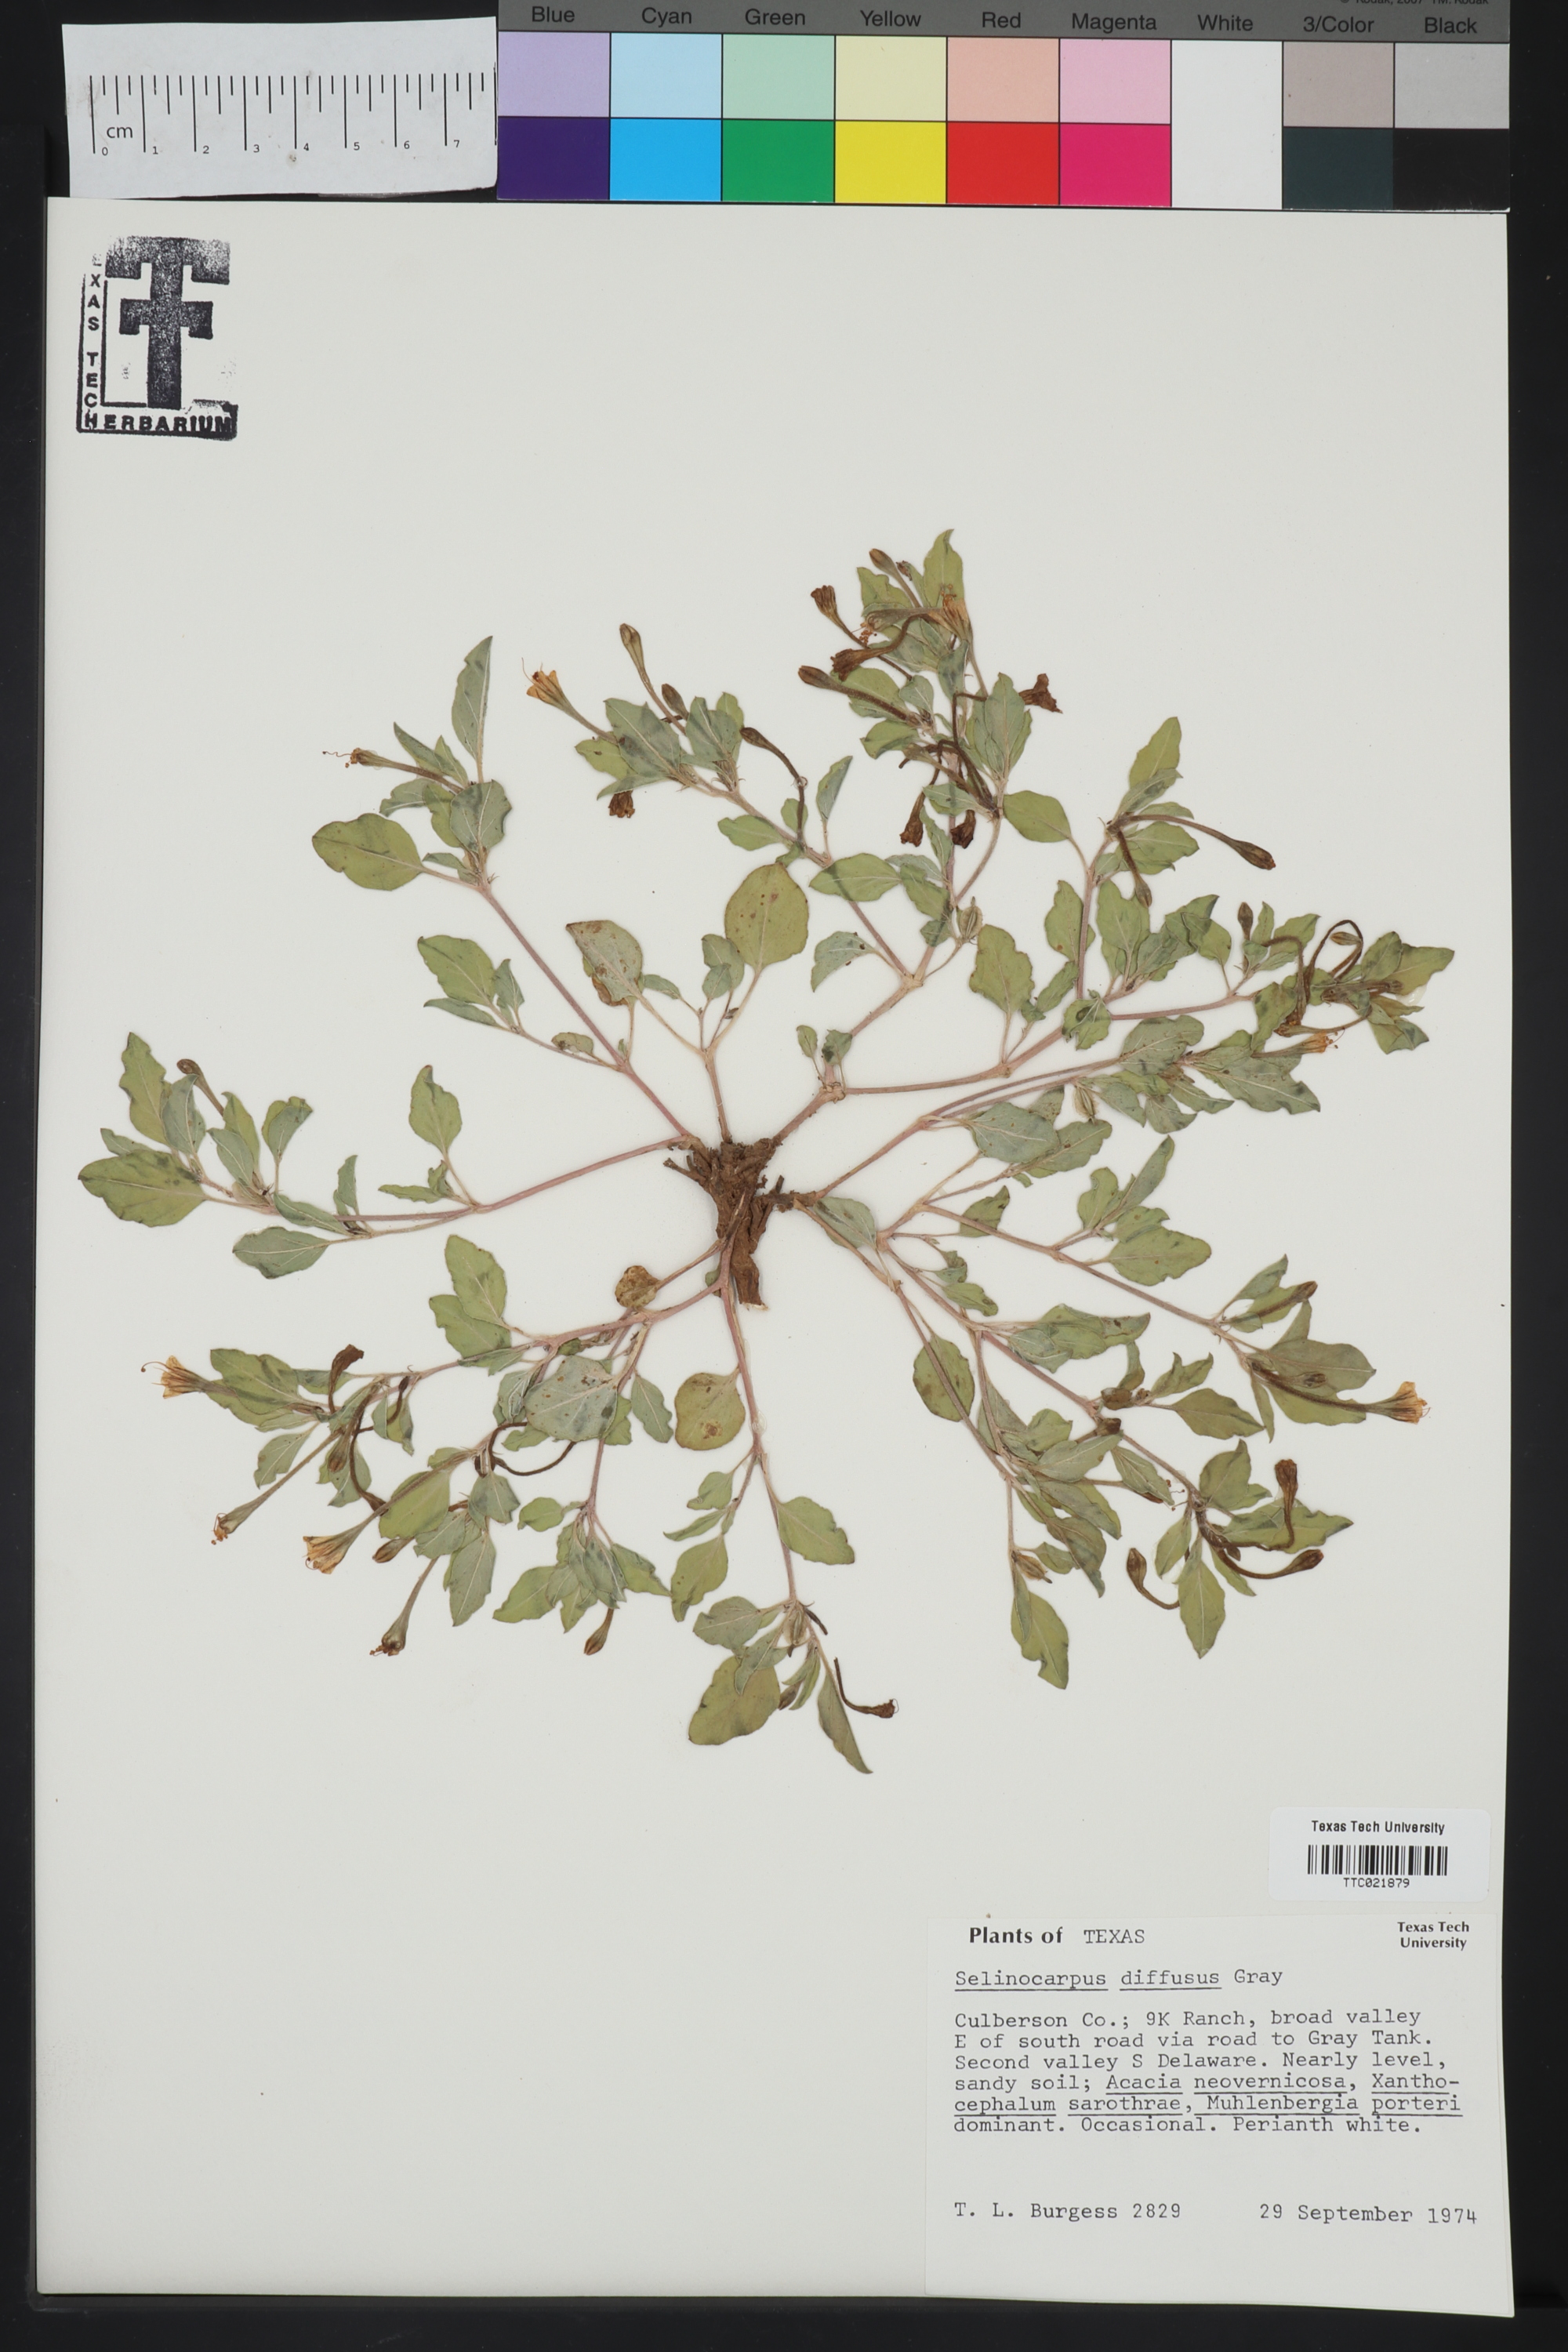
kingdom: Plantae
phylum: Tracheophyta
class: Magnoliopsida
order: Caryophyllales
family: Nyctaginaceae
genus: Acleisanthes
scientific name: Acleisanthes diffusa
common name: Spreading moonpod
